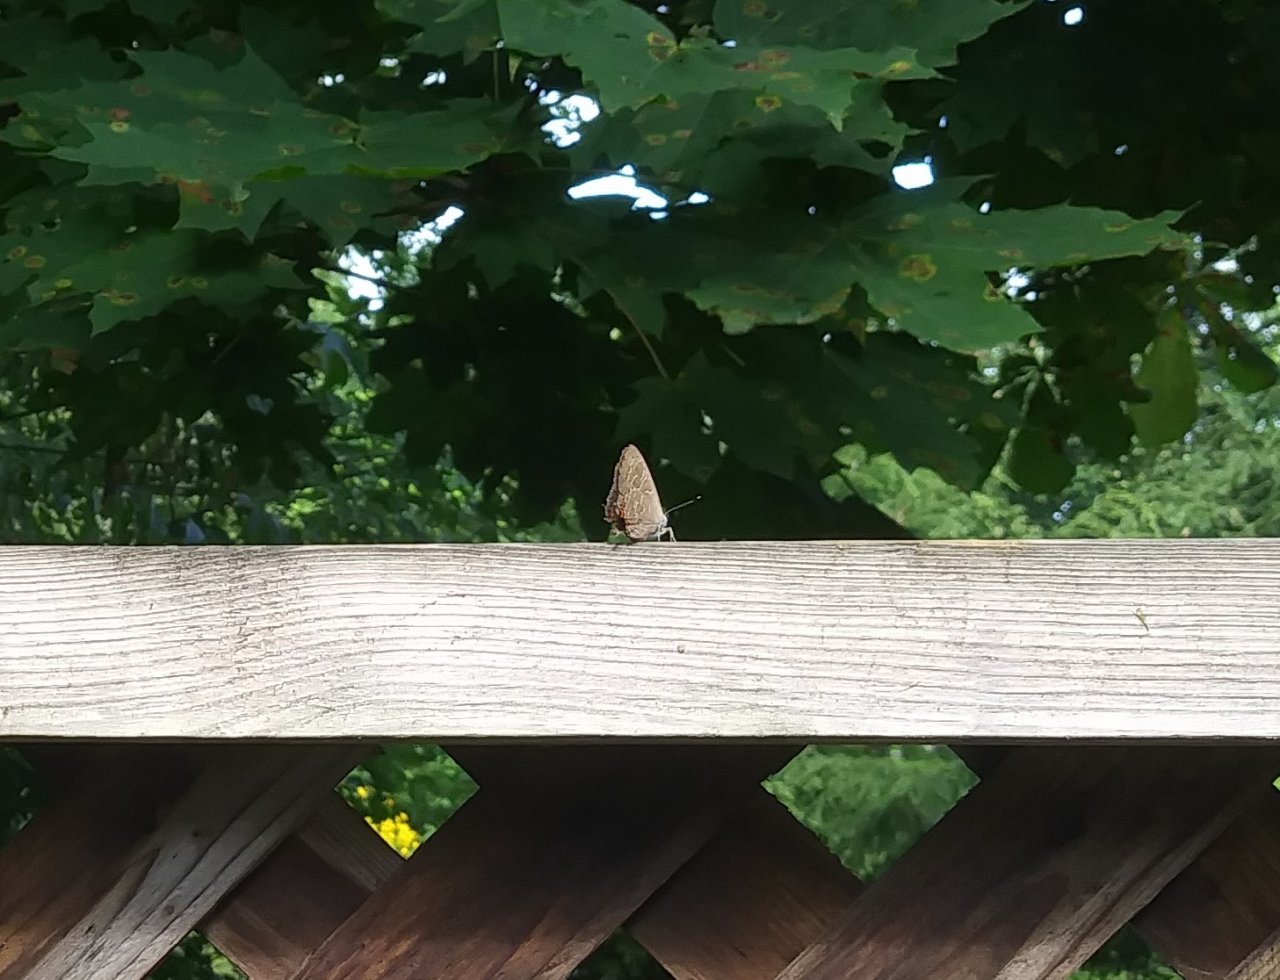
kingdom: Animalia
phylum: Arthropoda
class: Insecta
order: Lepidoptera
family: Lycaenidae
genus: Satyrium
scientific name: Satyrium liparops
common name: Striped Hairstreak
